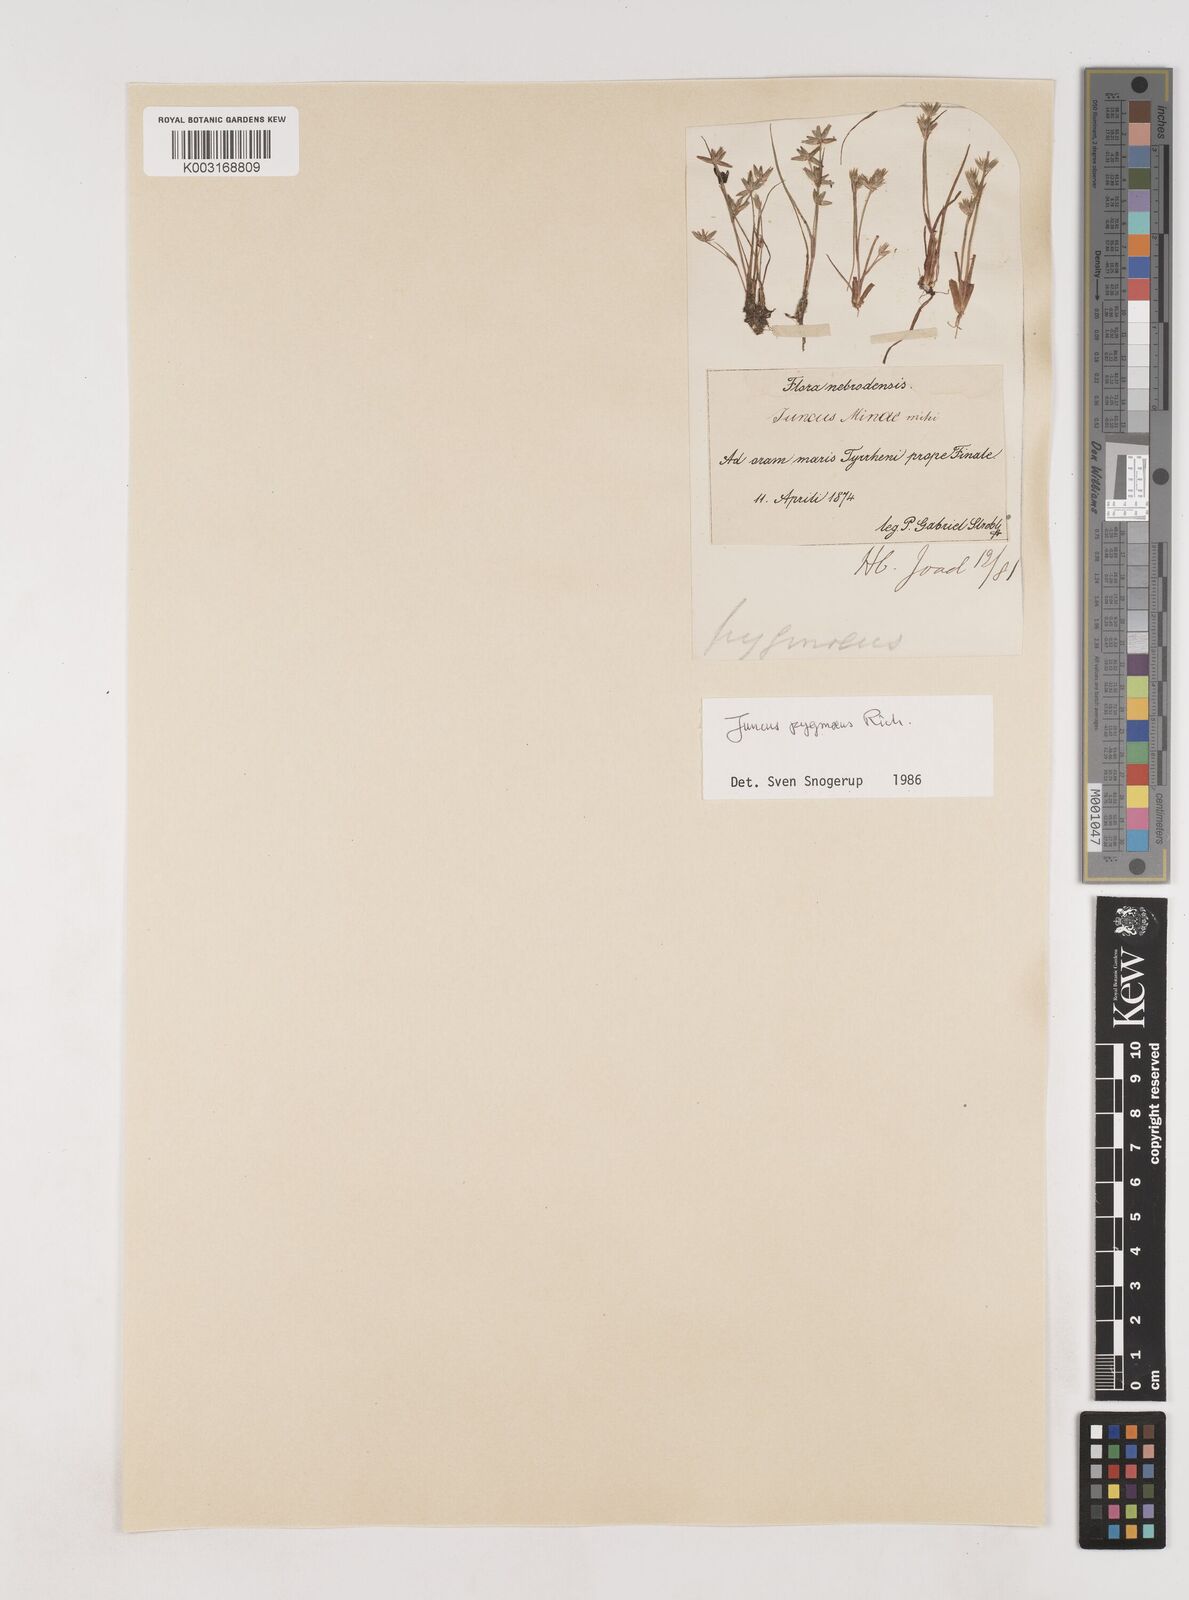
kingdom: Plantae
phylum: Tracheophyta
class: Liliopsida
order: Poales
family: Juncaceae
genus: Juncus
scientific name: Juncus pygmaeus
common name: Pigmy rush
